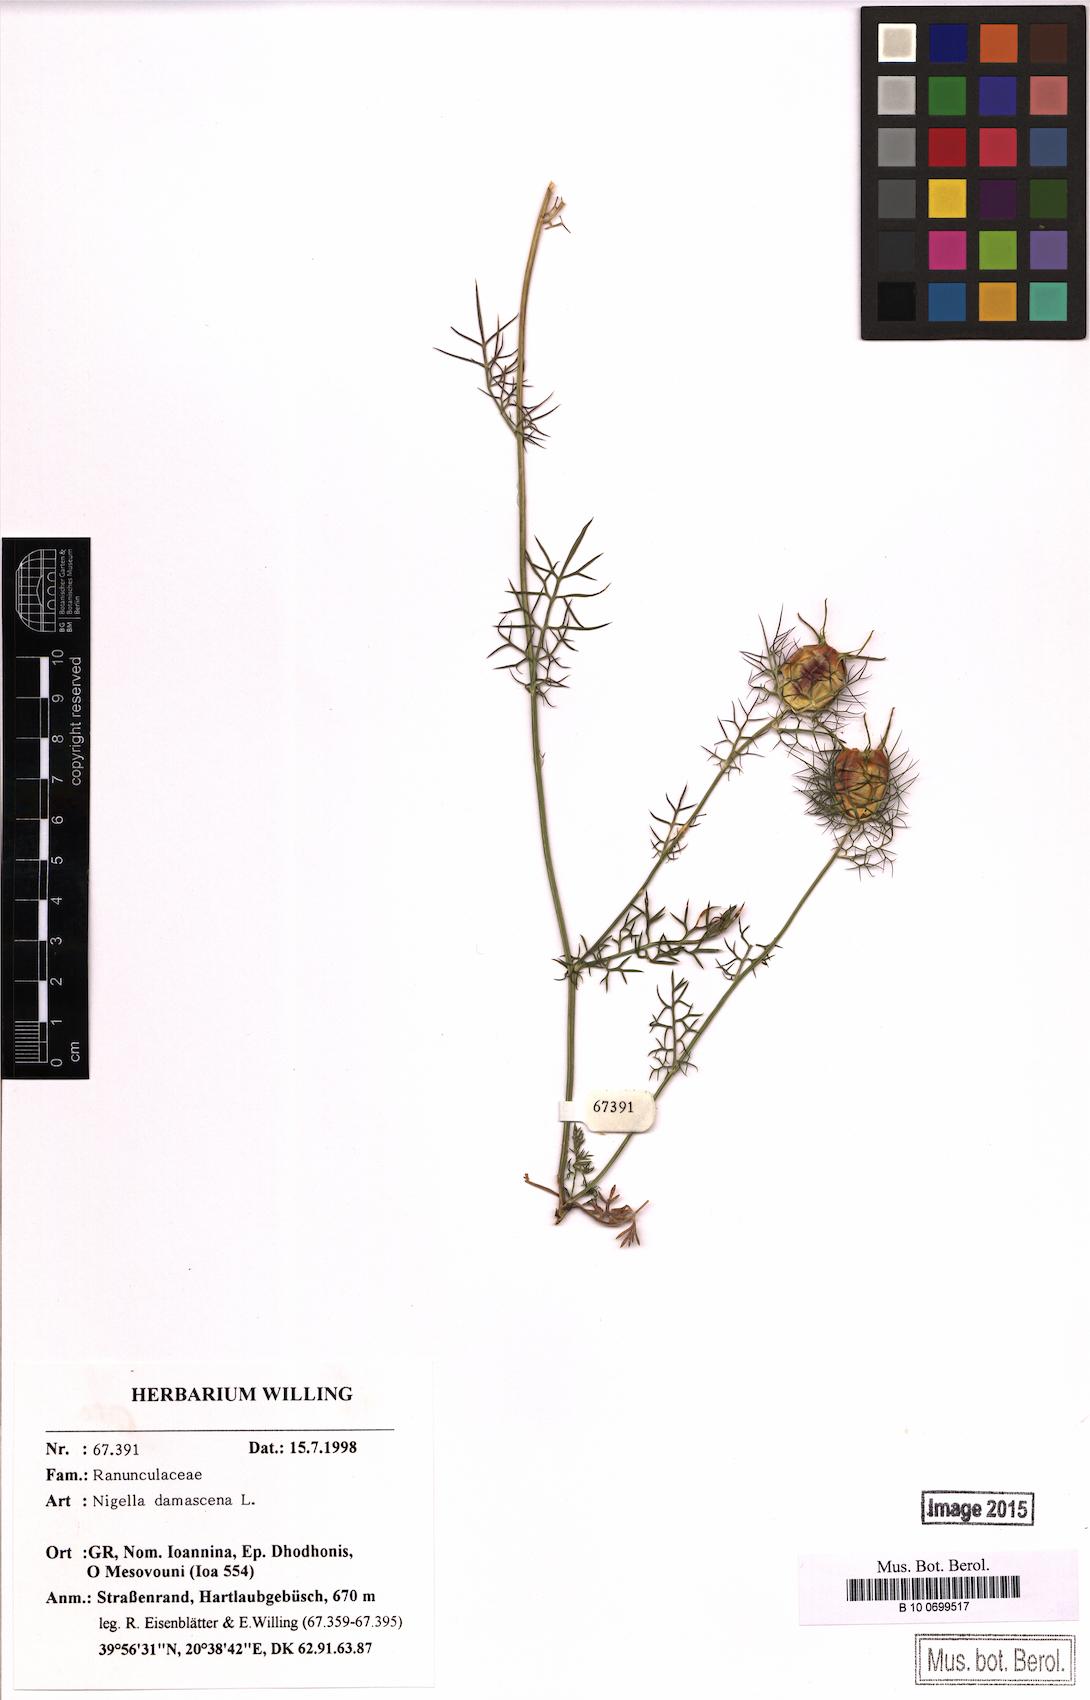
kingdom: Plantae
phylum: Tracheophyta
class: Magnoliopsida
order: Ranunculales
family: Ranunculaceae
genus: Nigella
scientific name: Nigella damascena
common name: Love-in-a-mist
